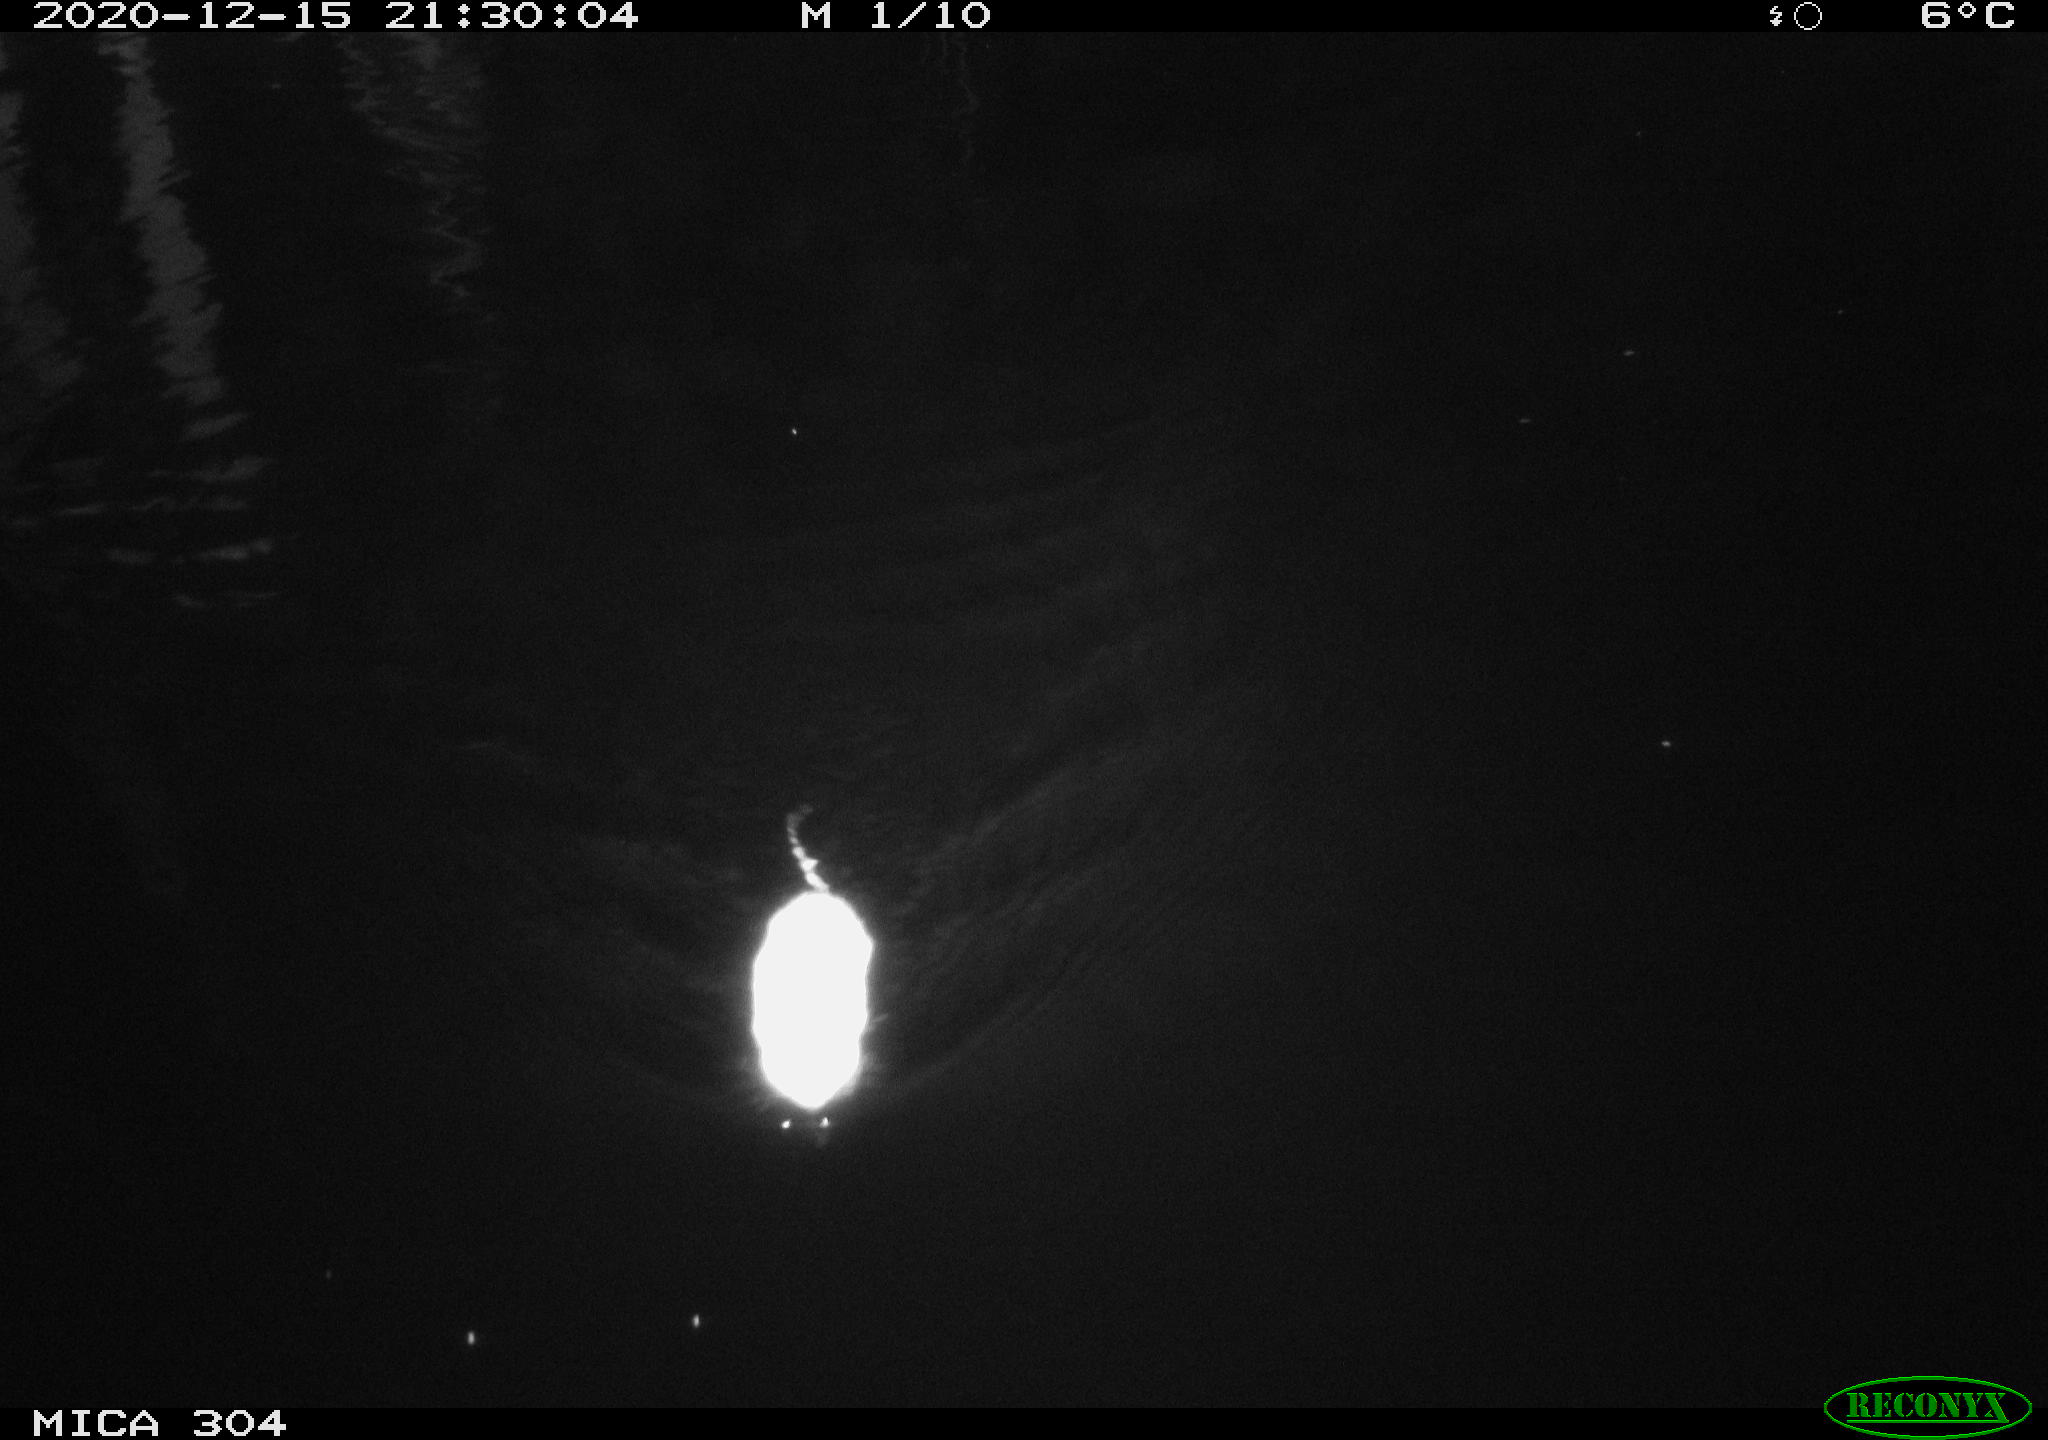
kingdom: Animalia
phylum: Chordata
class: Mammalia
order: Rodentia
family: Muridae
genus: Rattus
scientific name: Rattus norvegicus
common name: Brown rat
